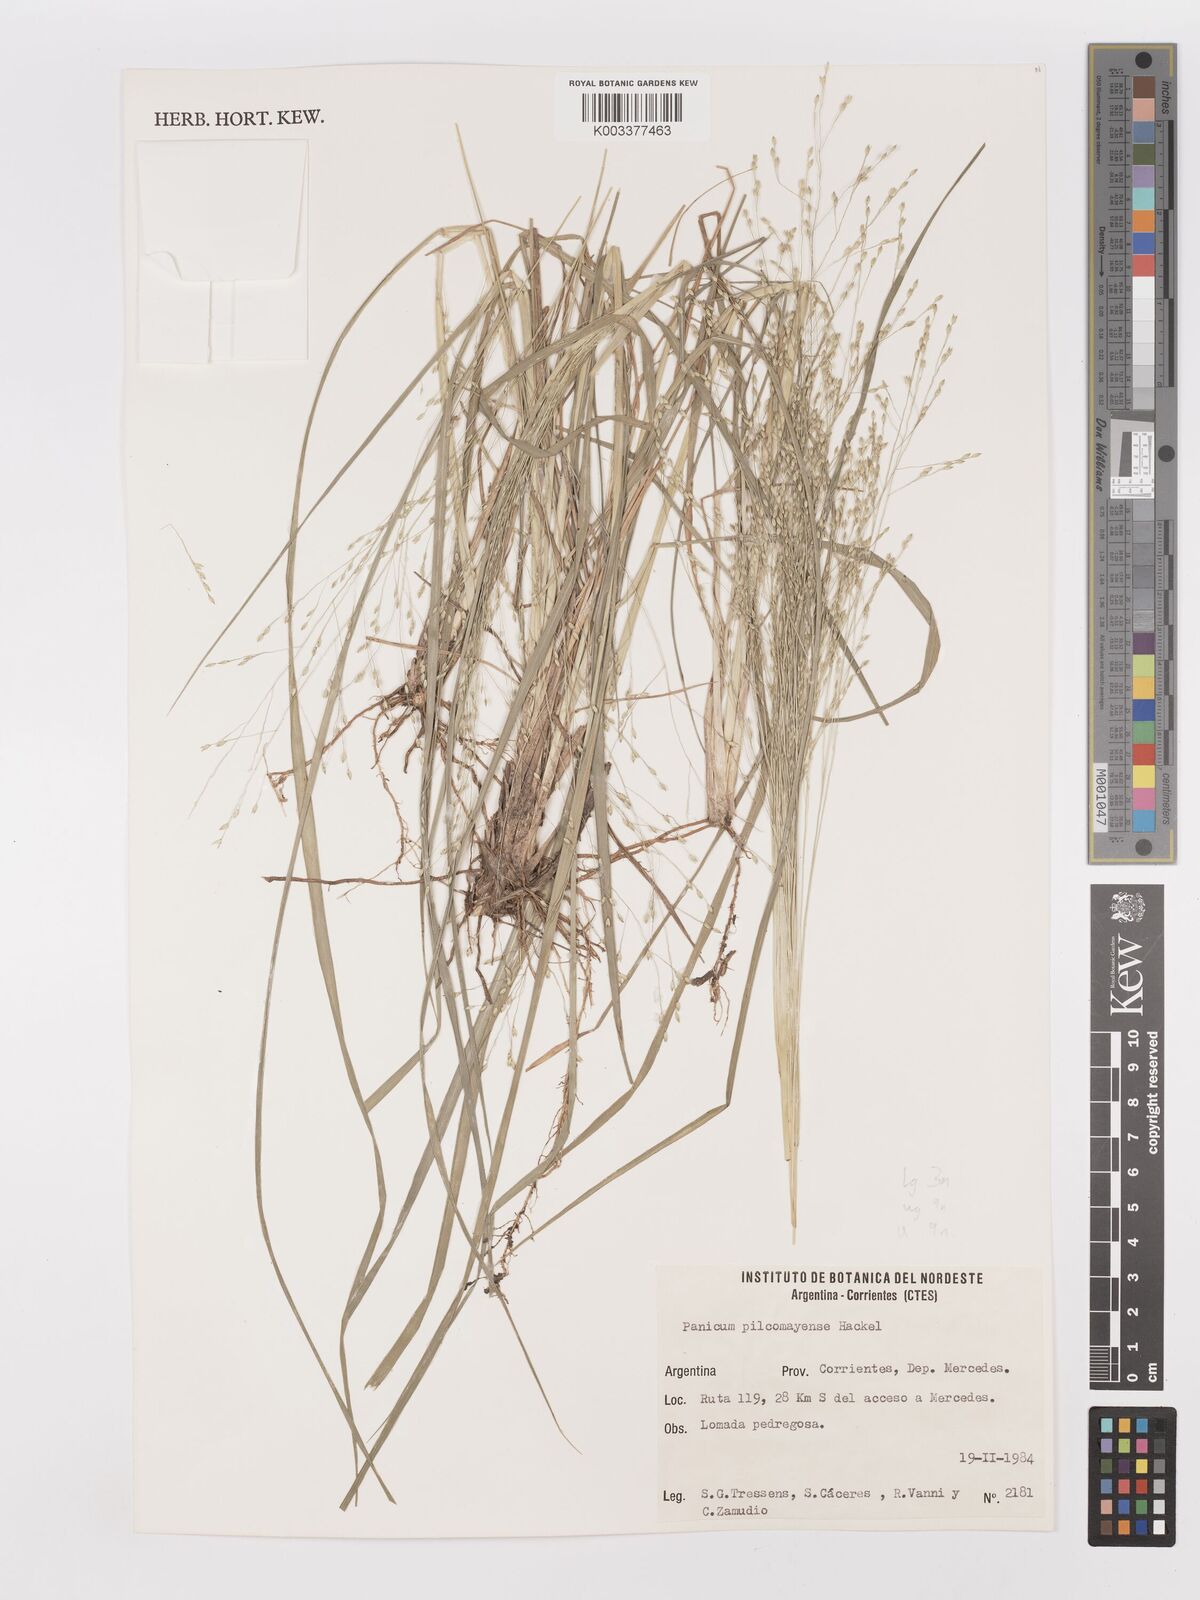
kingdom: Plantae
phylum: Tracheophyta
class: Liliopsida
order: Poales
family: Poaceae
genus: Panicum
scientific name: Panicum bergii
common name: Berg's panicgrass
